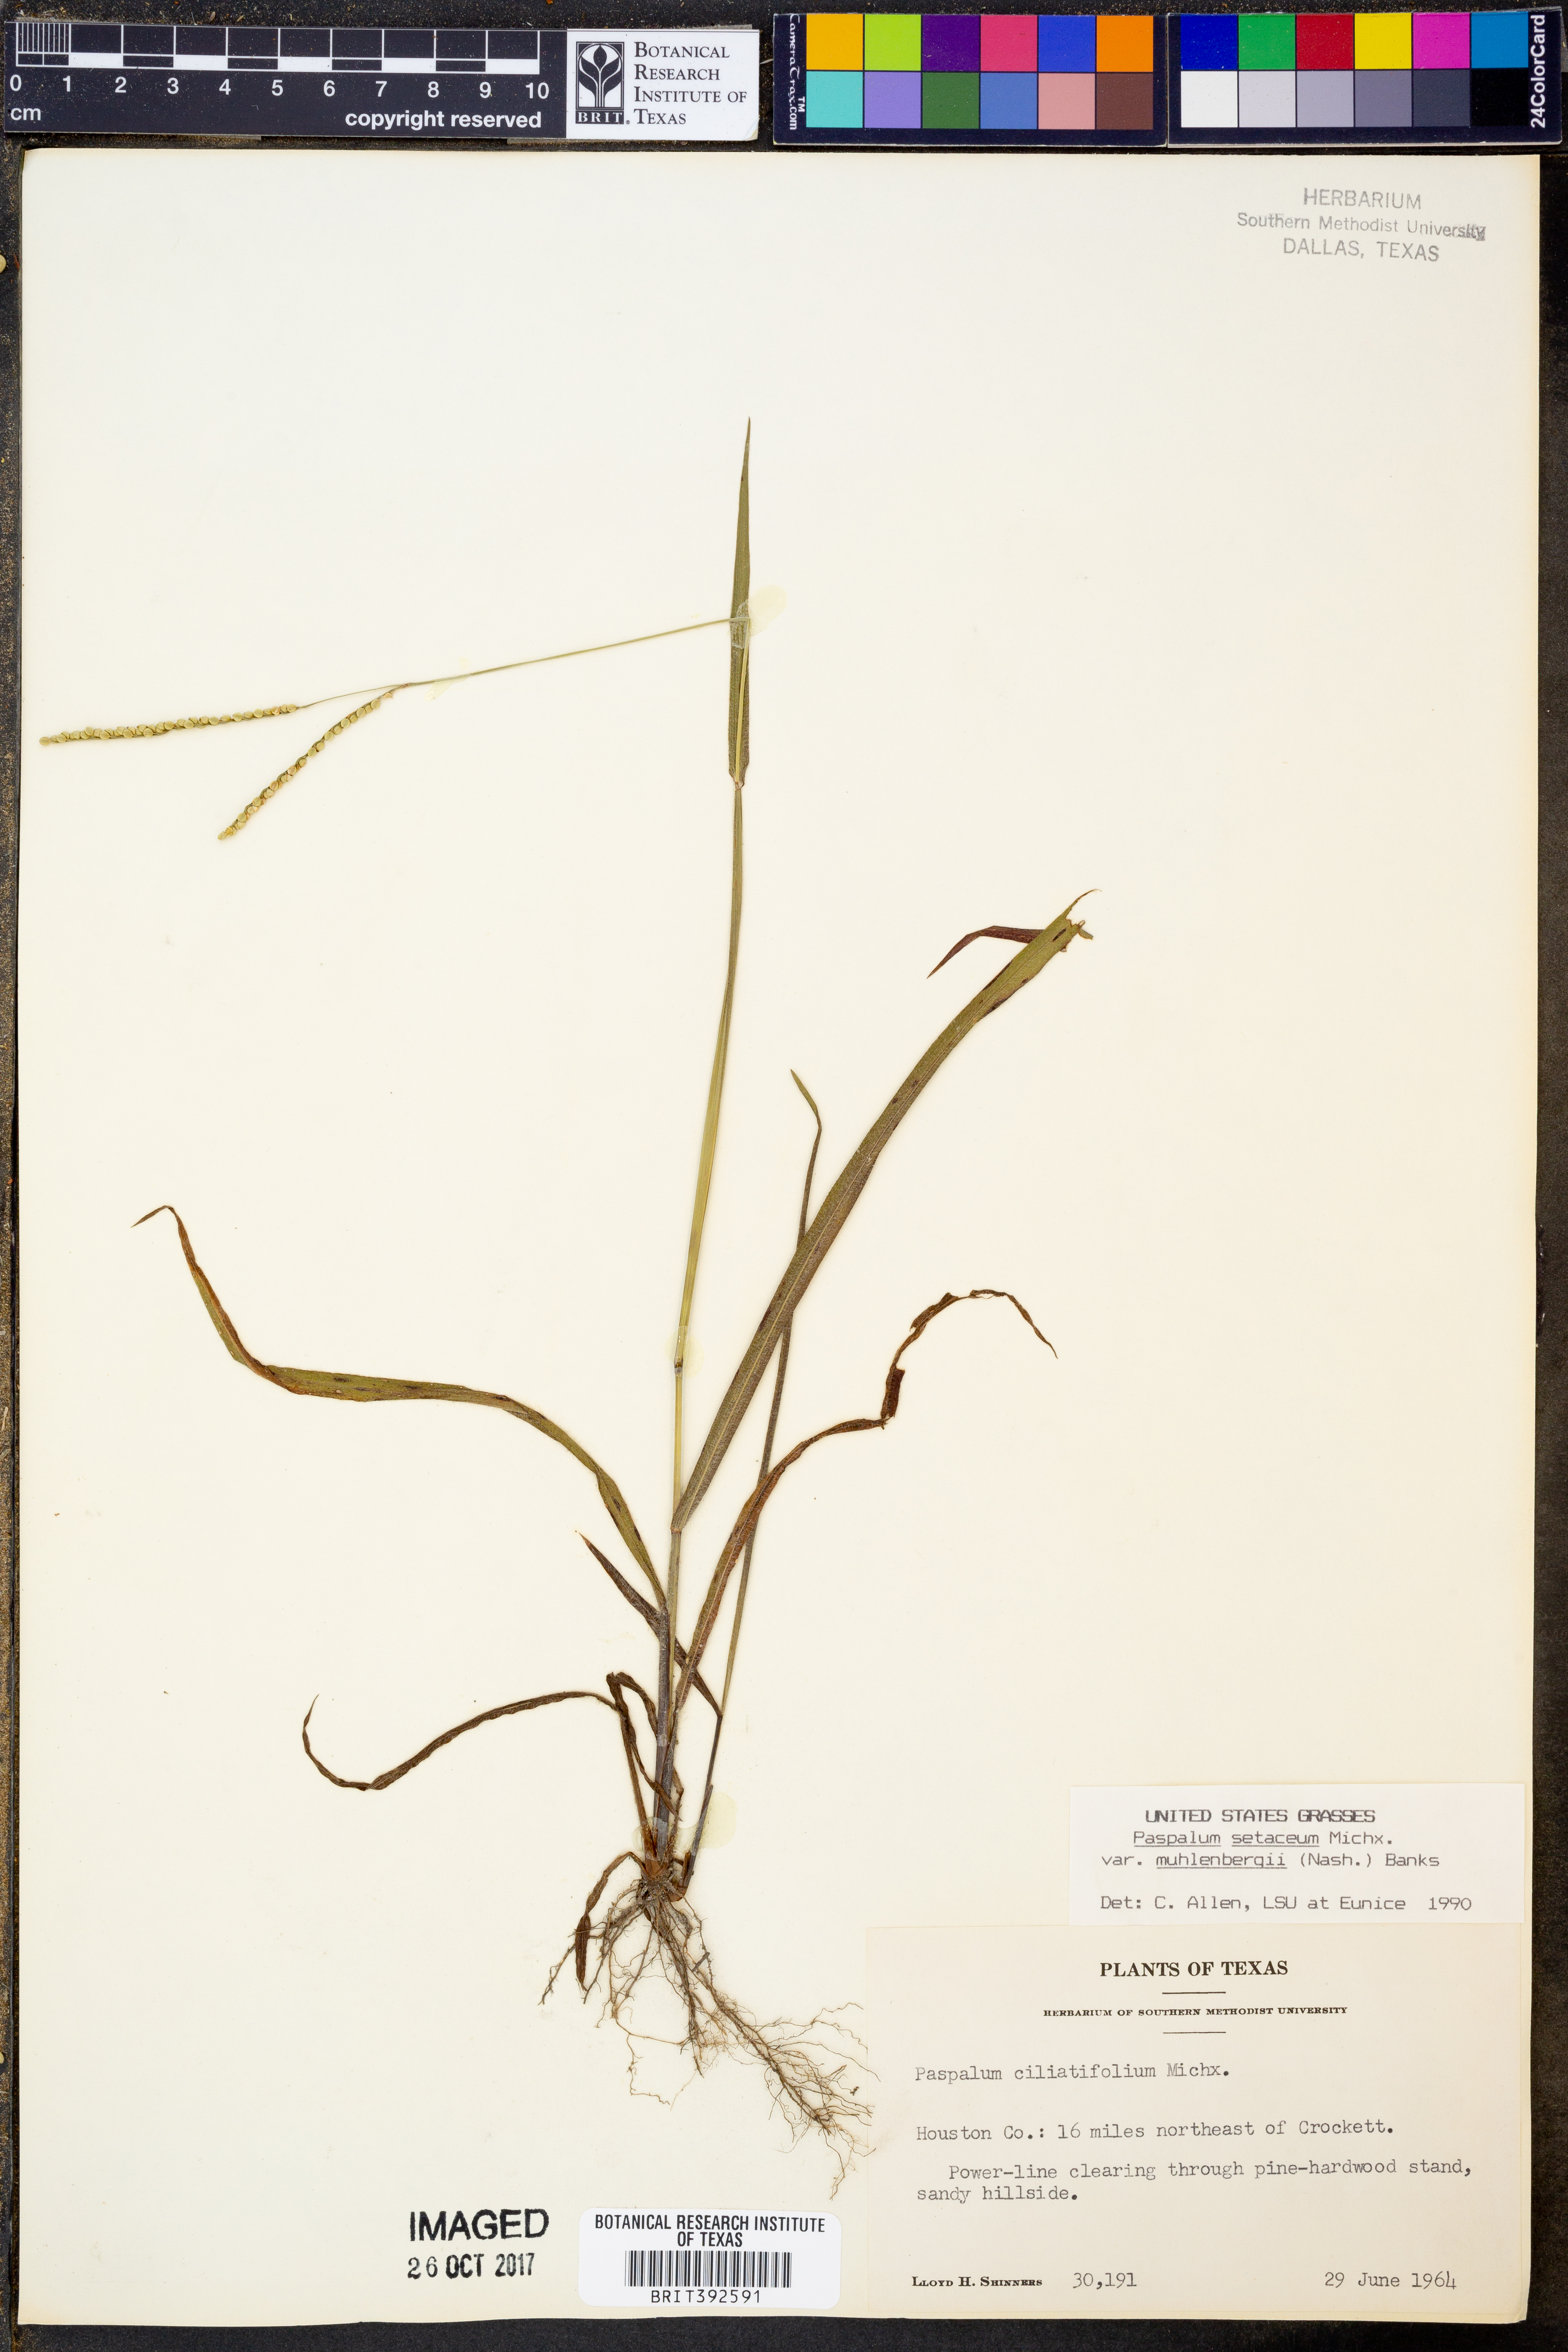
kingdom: Plantae
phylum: Tracheophyta
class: Liliopsida
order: Poales
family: Poaceae
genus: Paspalum
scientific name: Paspalum setaceum
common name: Slender paspalum
